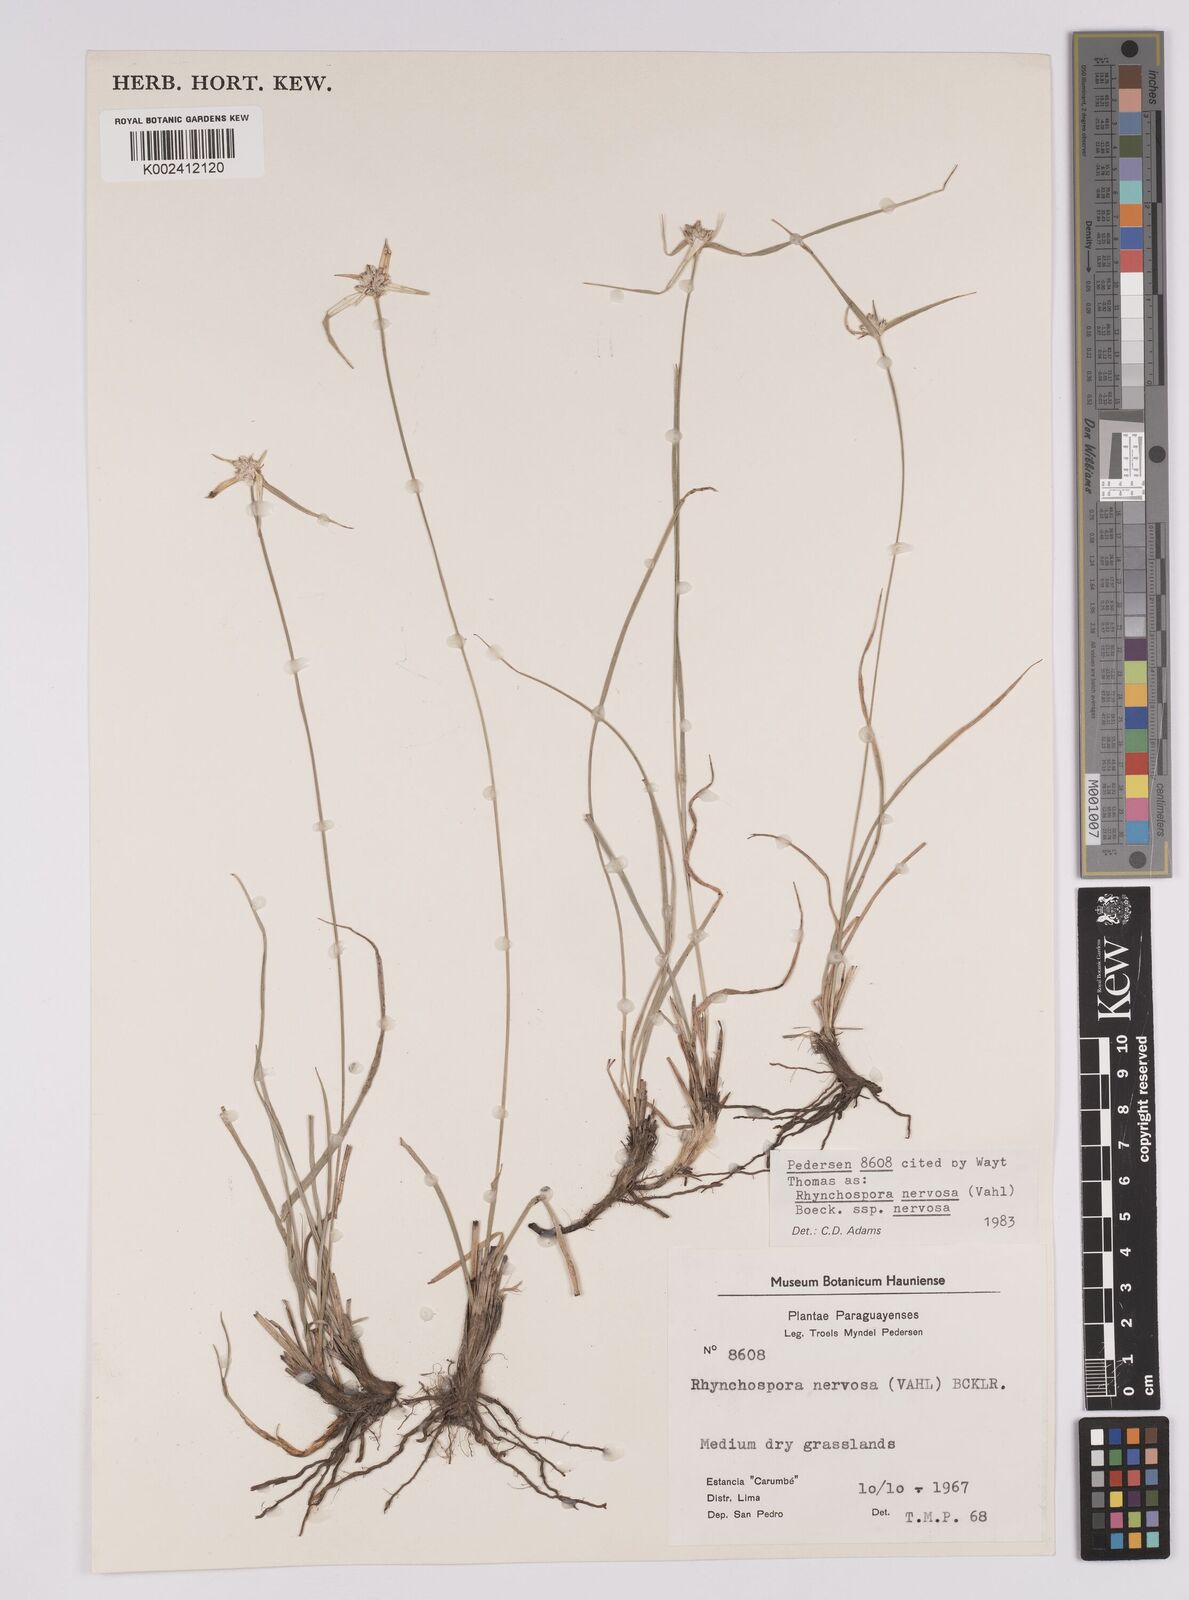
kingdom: Plantae
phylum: Tracheophyta
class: Liliopsida
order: Poales
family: Cyperaceae
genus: Rhynchospora
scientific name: Rhynchospora nervosa
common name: Star sedge
